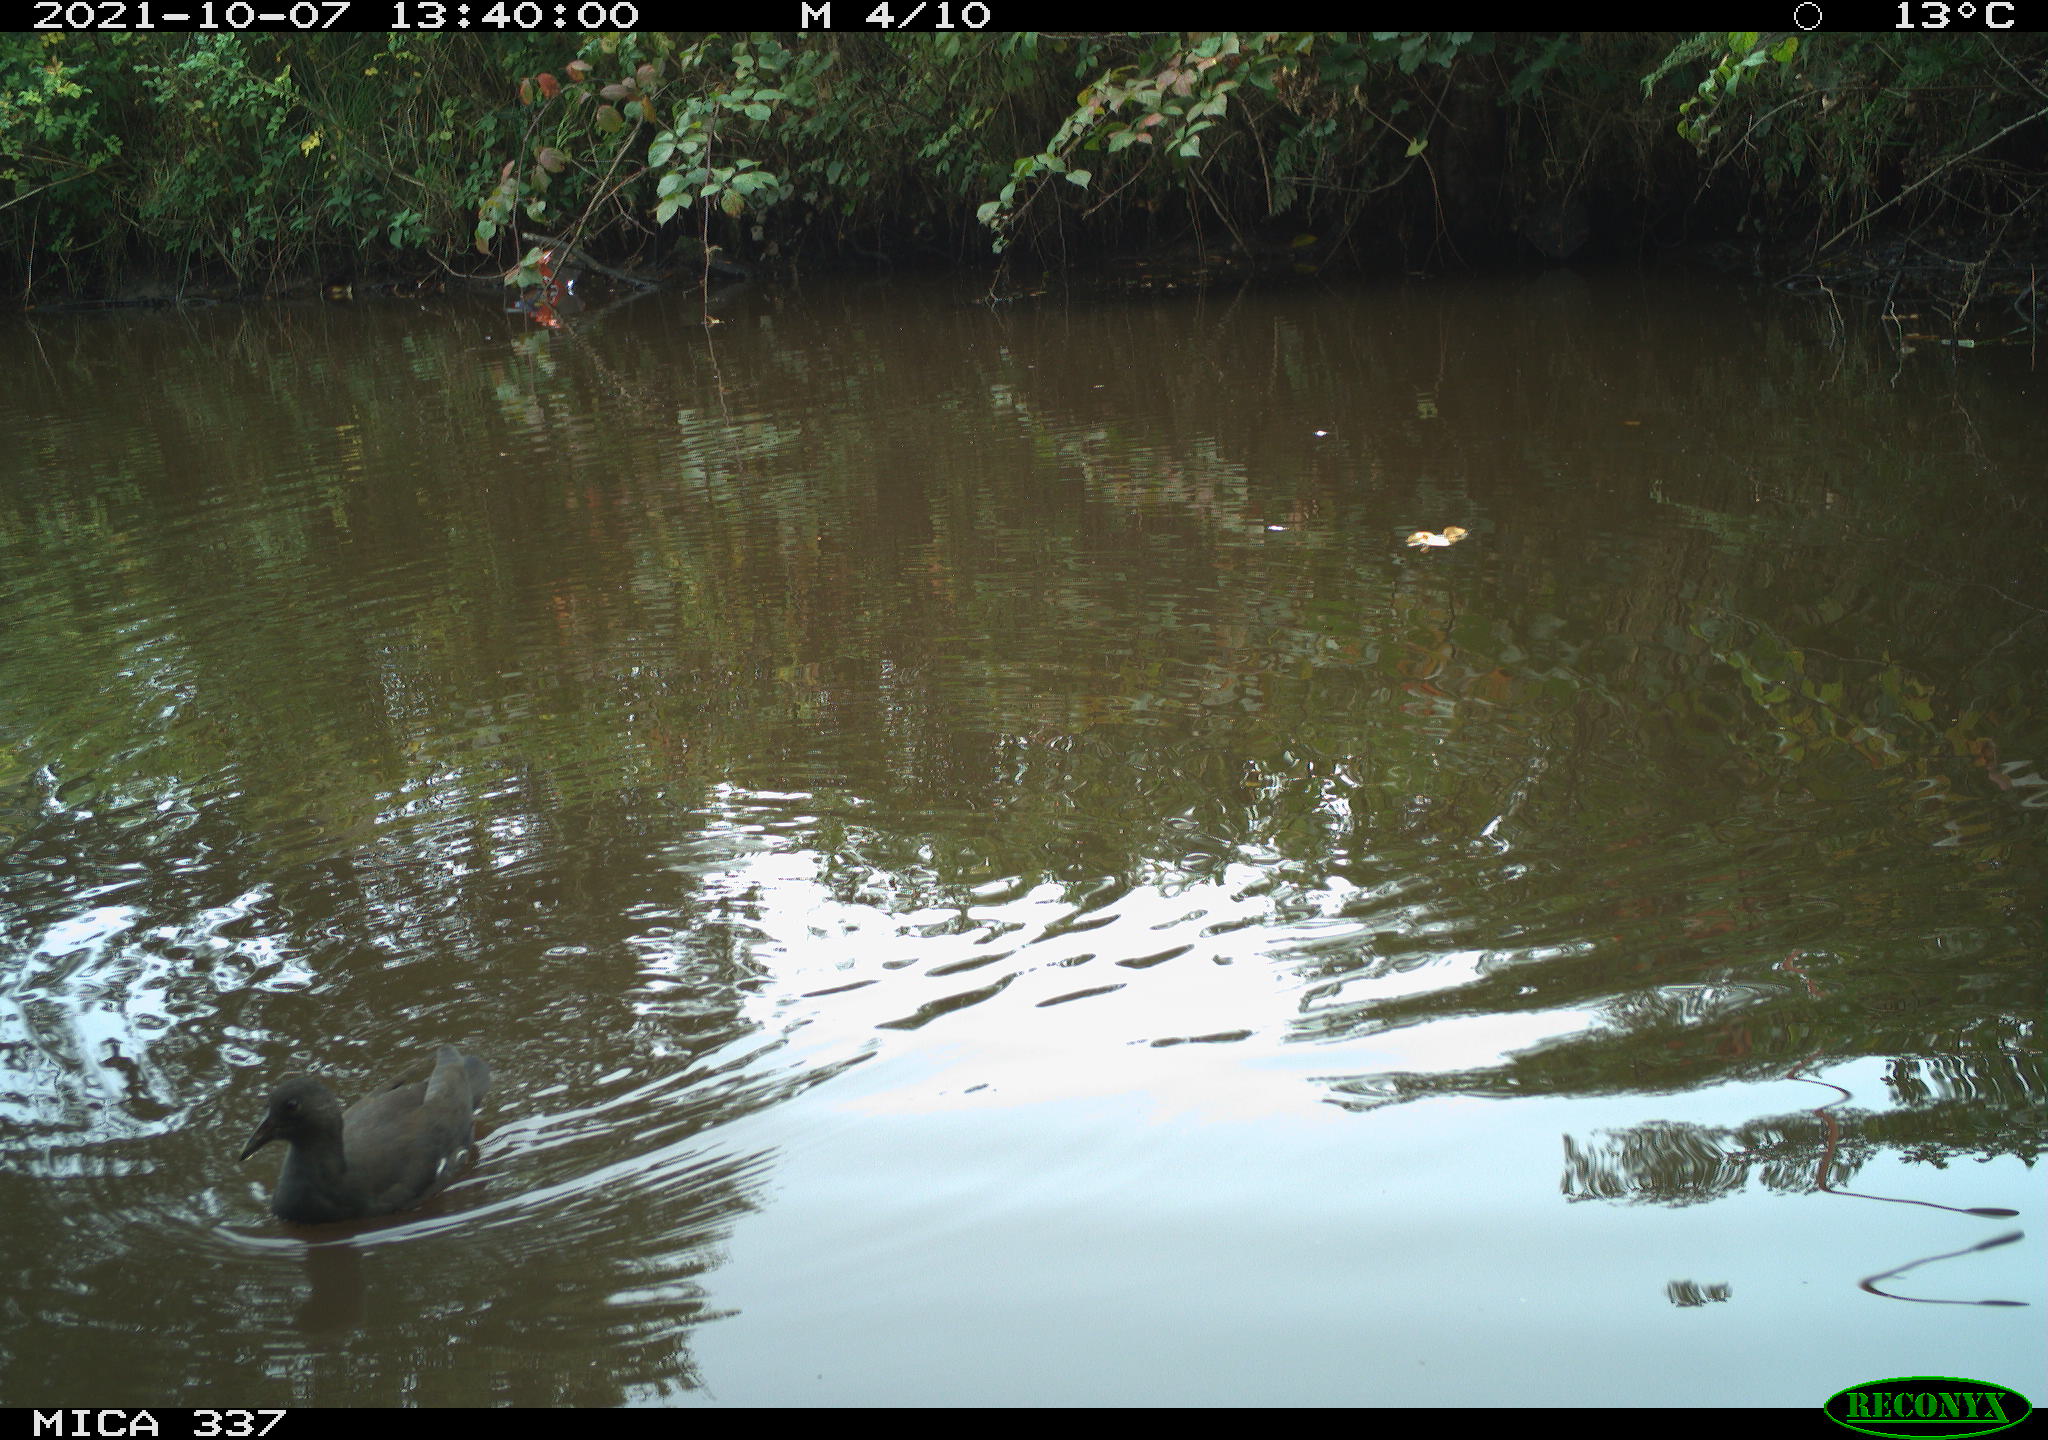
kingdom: Animalia
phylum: Chordata
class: Aves
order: Gruiformes
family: Rallidae
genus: Gallinula
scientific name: Gallinula chloropus
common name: Common moorhen
